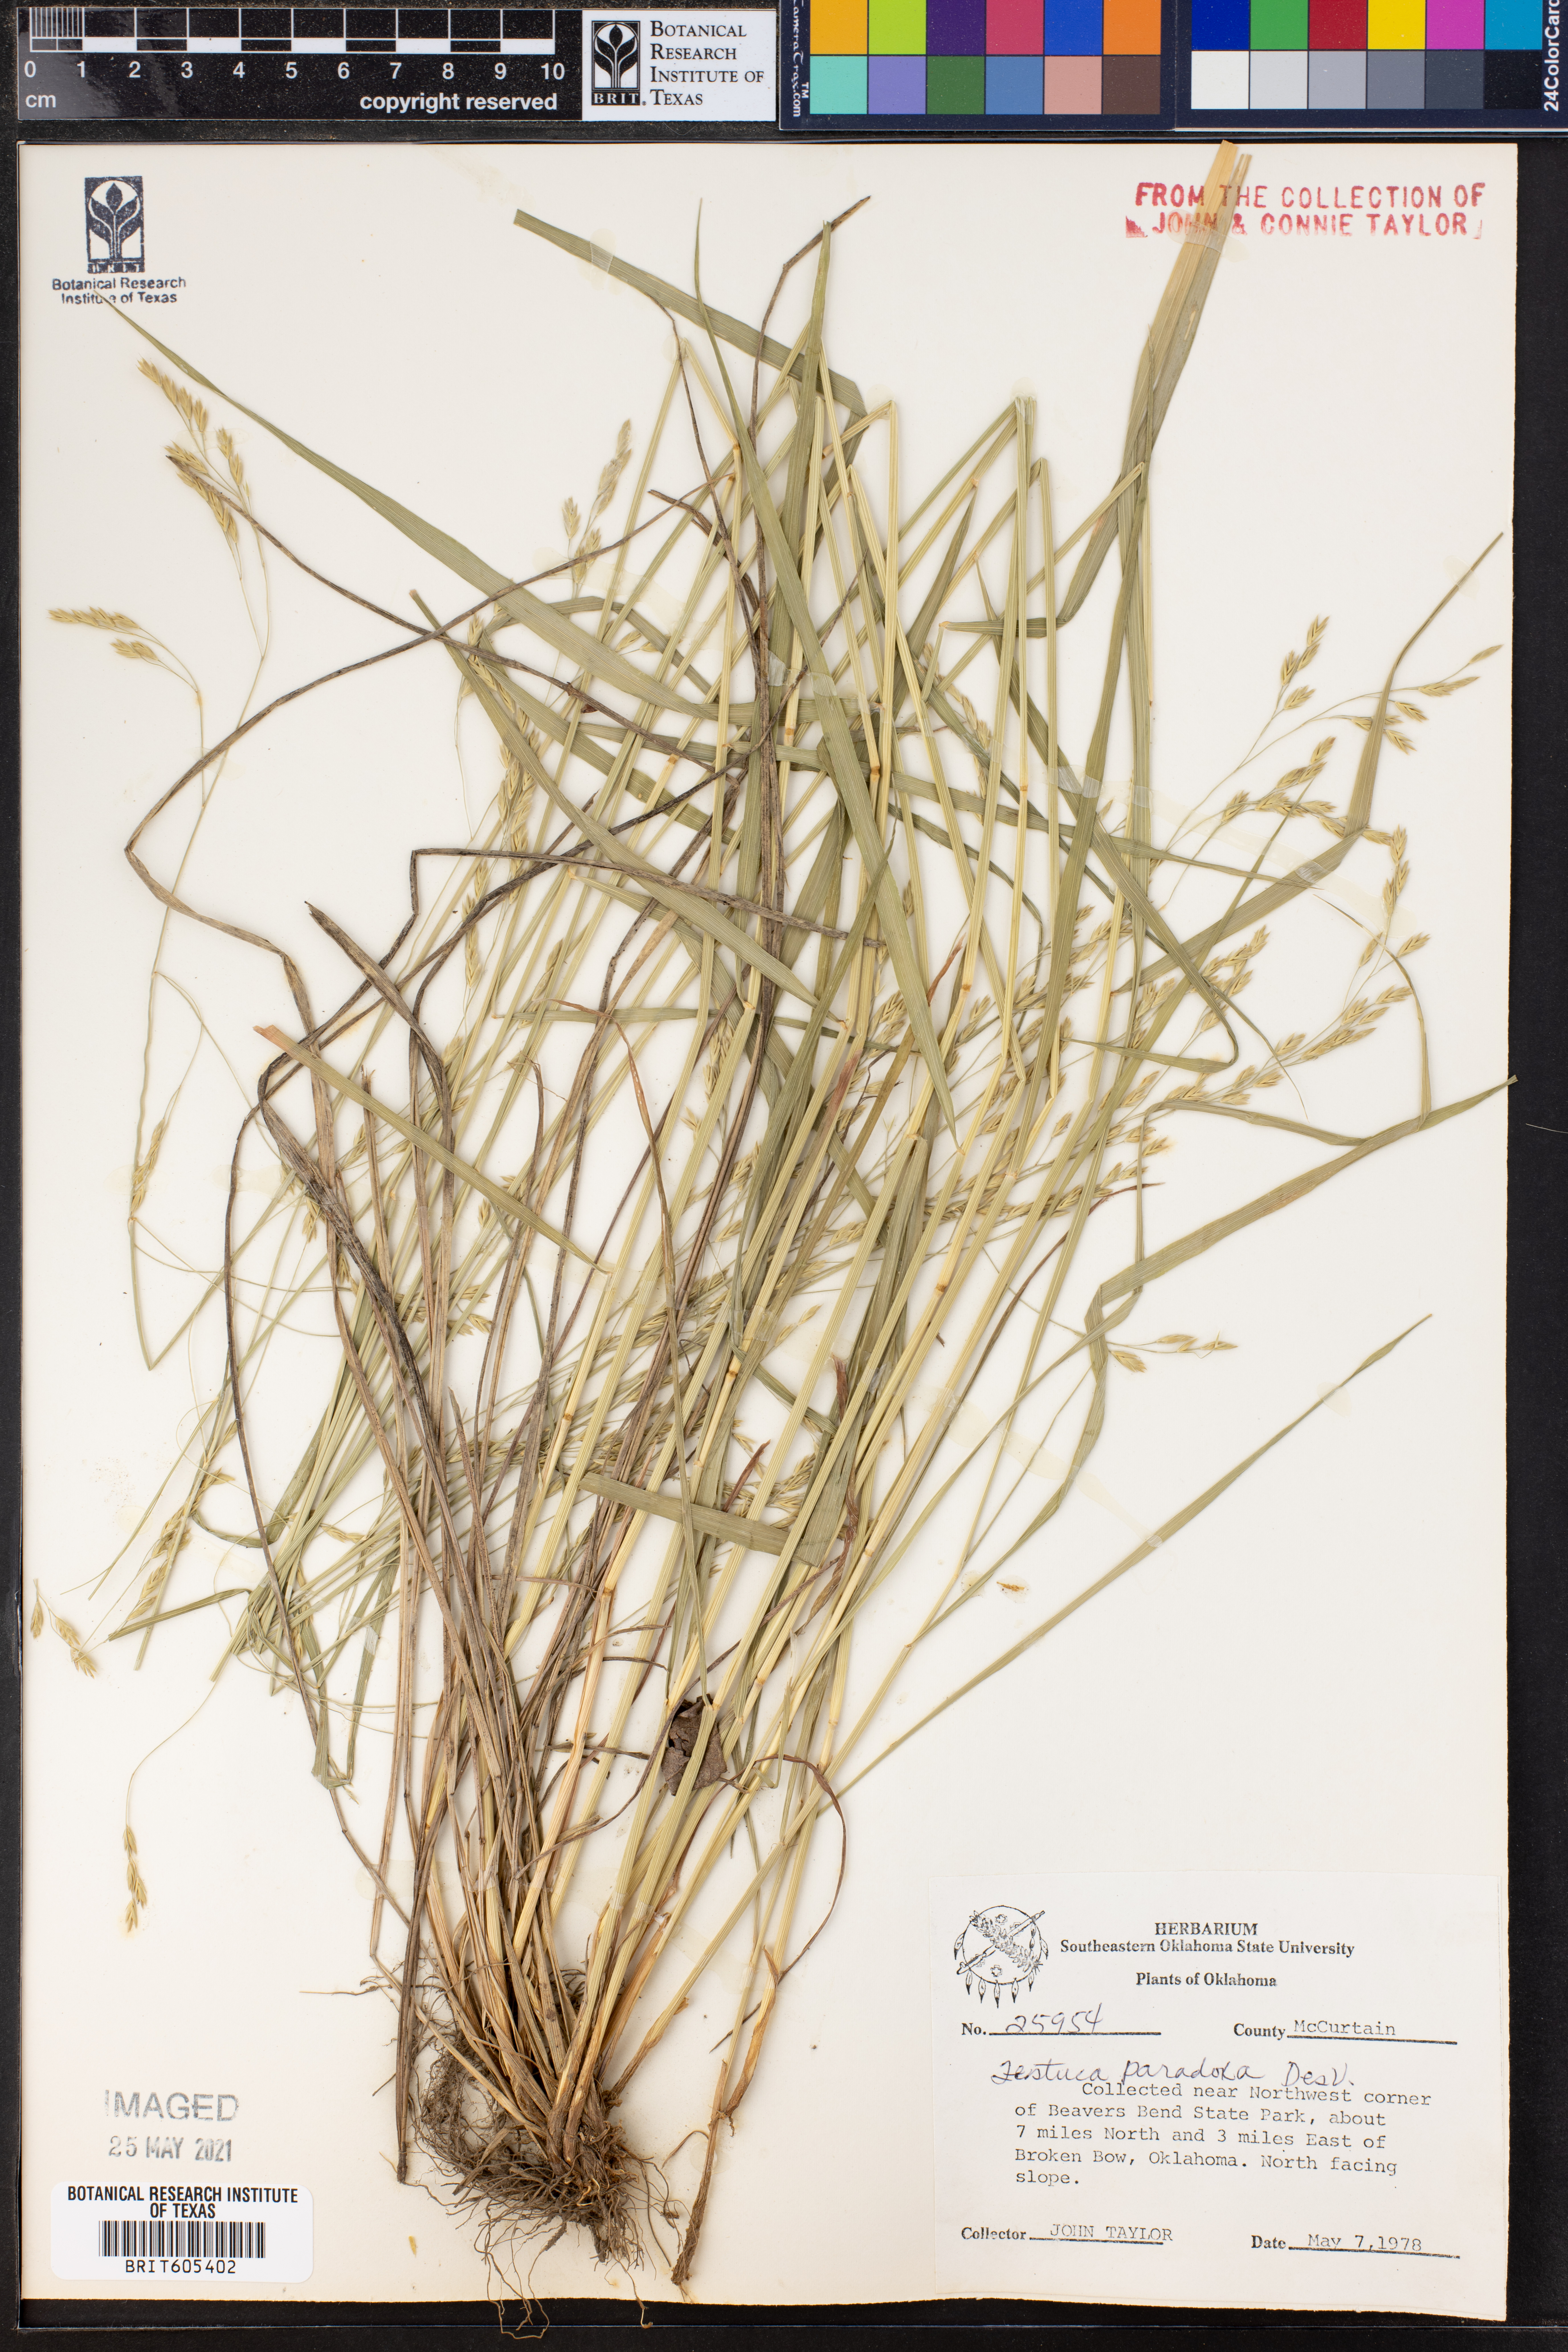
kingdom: Plantae
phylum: Tracheophyta
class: Liliopsida
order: Poales
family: Poaceae
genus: Festuca
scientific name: Festuca paradoxa
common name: Cluster fescue
